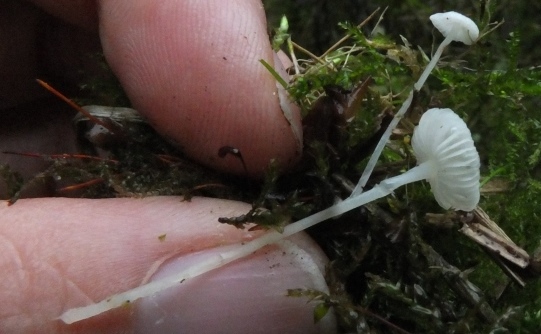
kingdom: Fungi
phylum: Basidiomycota
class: Agaricomycetes
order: Agaricales
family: Mycenaceae
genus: Hemimycena
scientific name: Hemimycena lactea
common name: mælkehvid huesvamp
